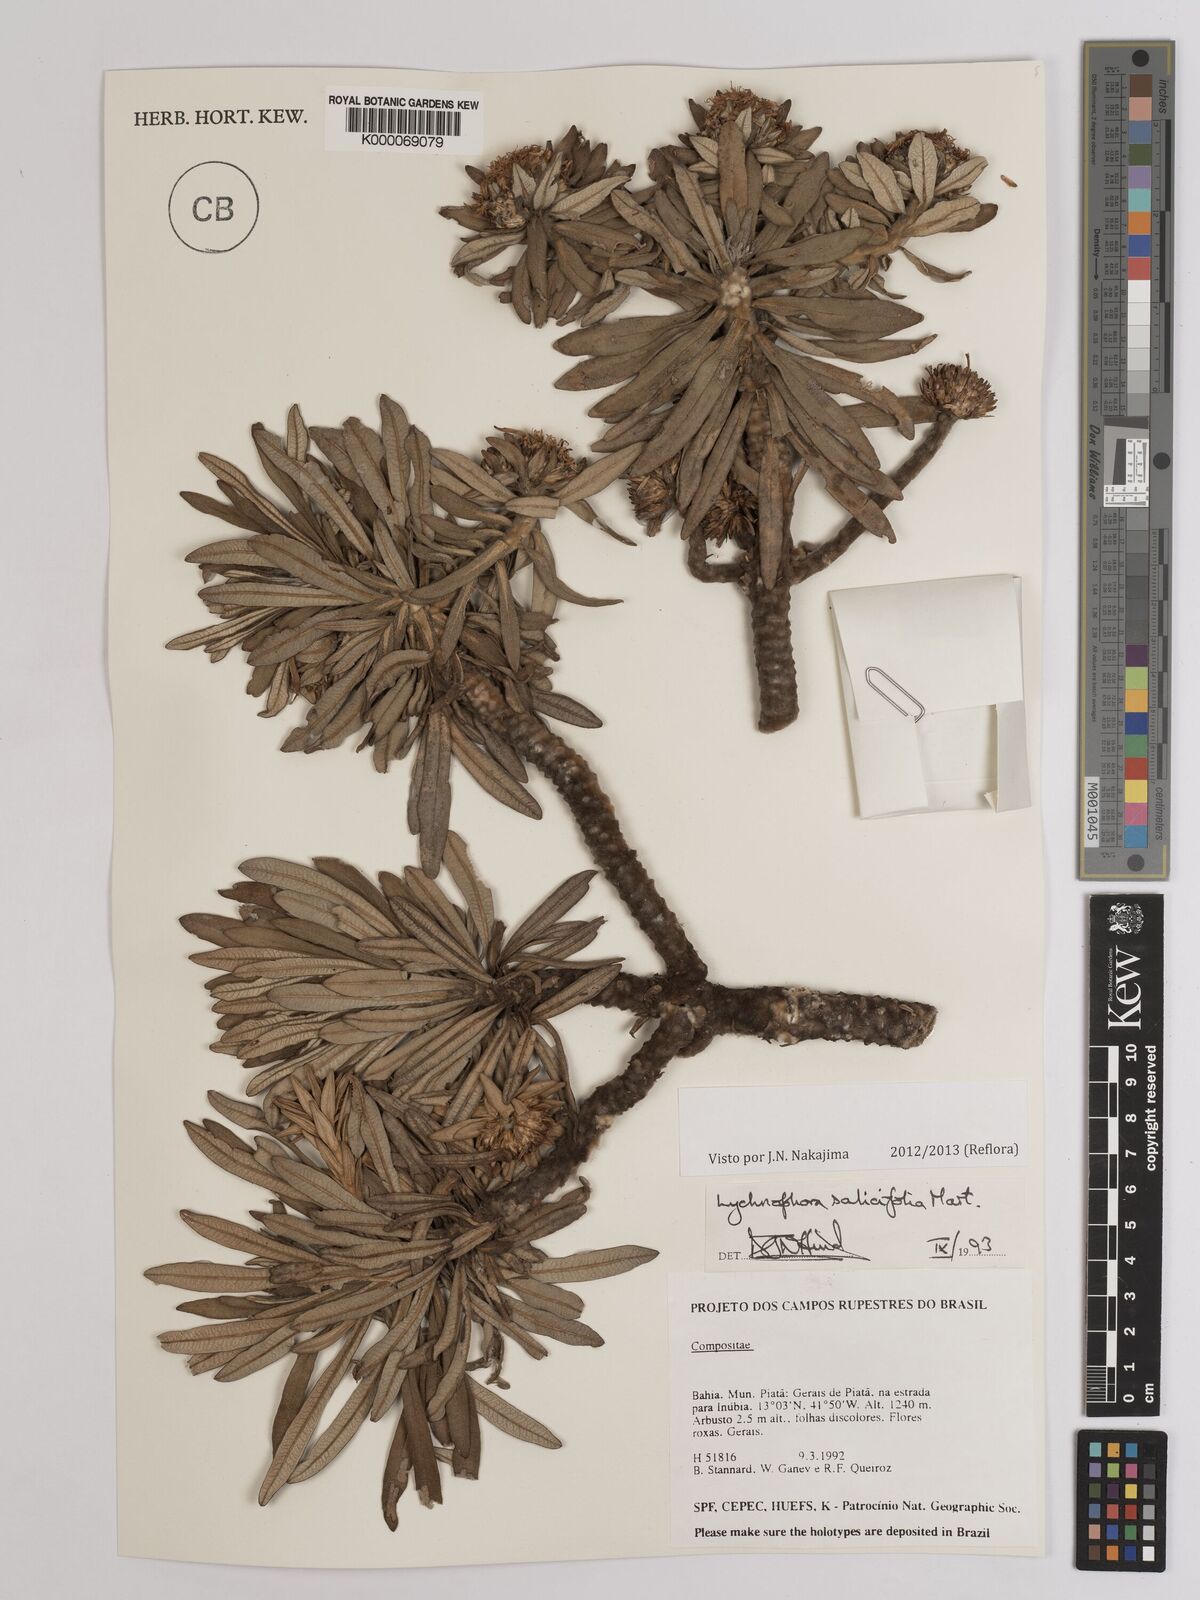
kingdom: Plantae
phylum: Tracheophyta
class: Magnoliopsida
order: Asterales
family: Asteraceae
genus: Lychnophora
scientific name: Lychnophora salicifolia
